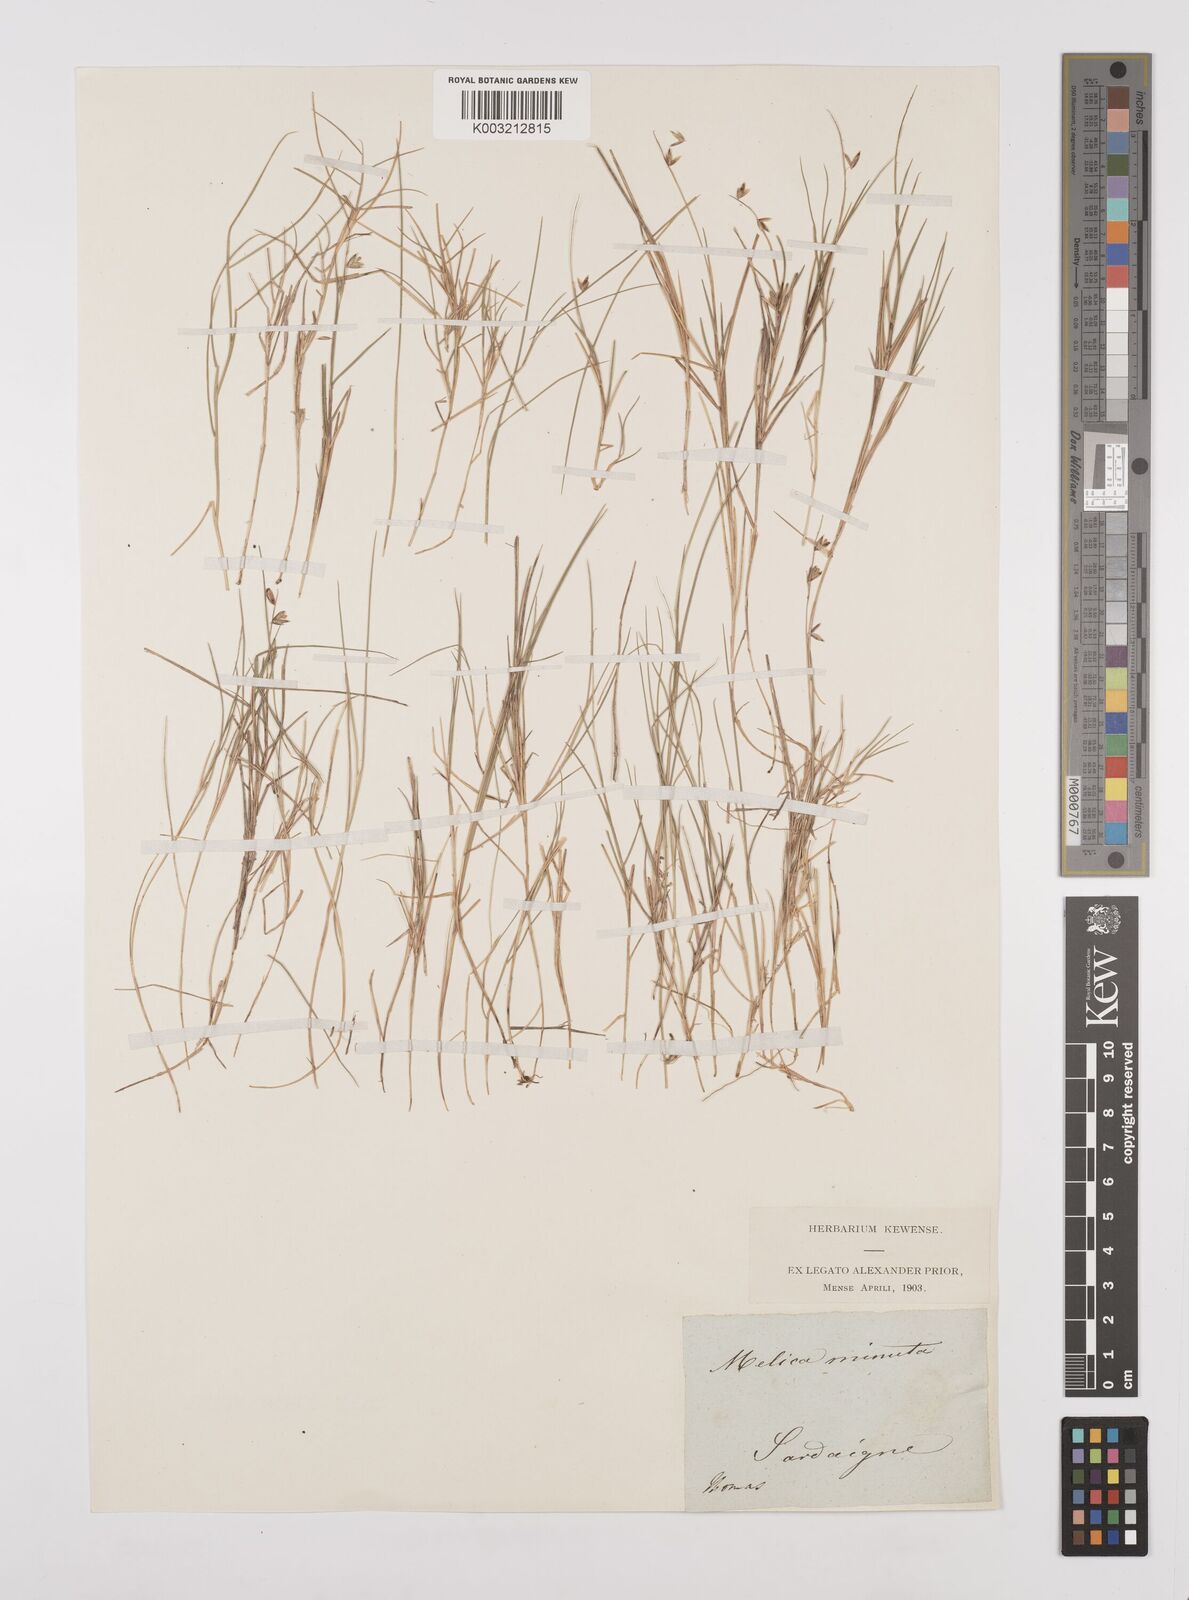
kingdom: Plantae
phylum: Tracheophyta
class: Liliopsida
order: Poales
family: Poaceae
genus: Melica
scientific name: Melica minuta
